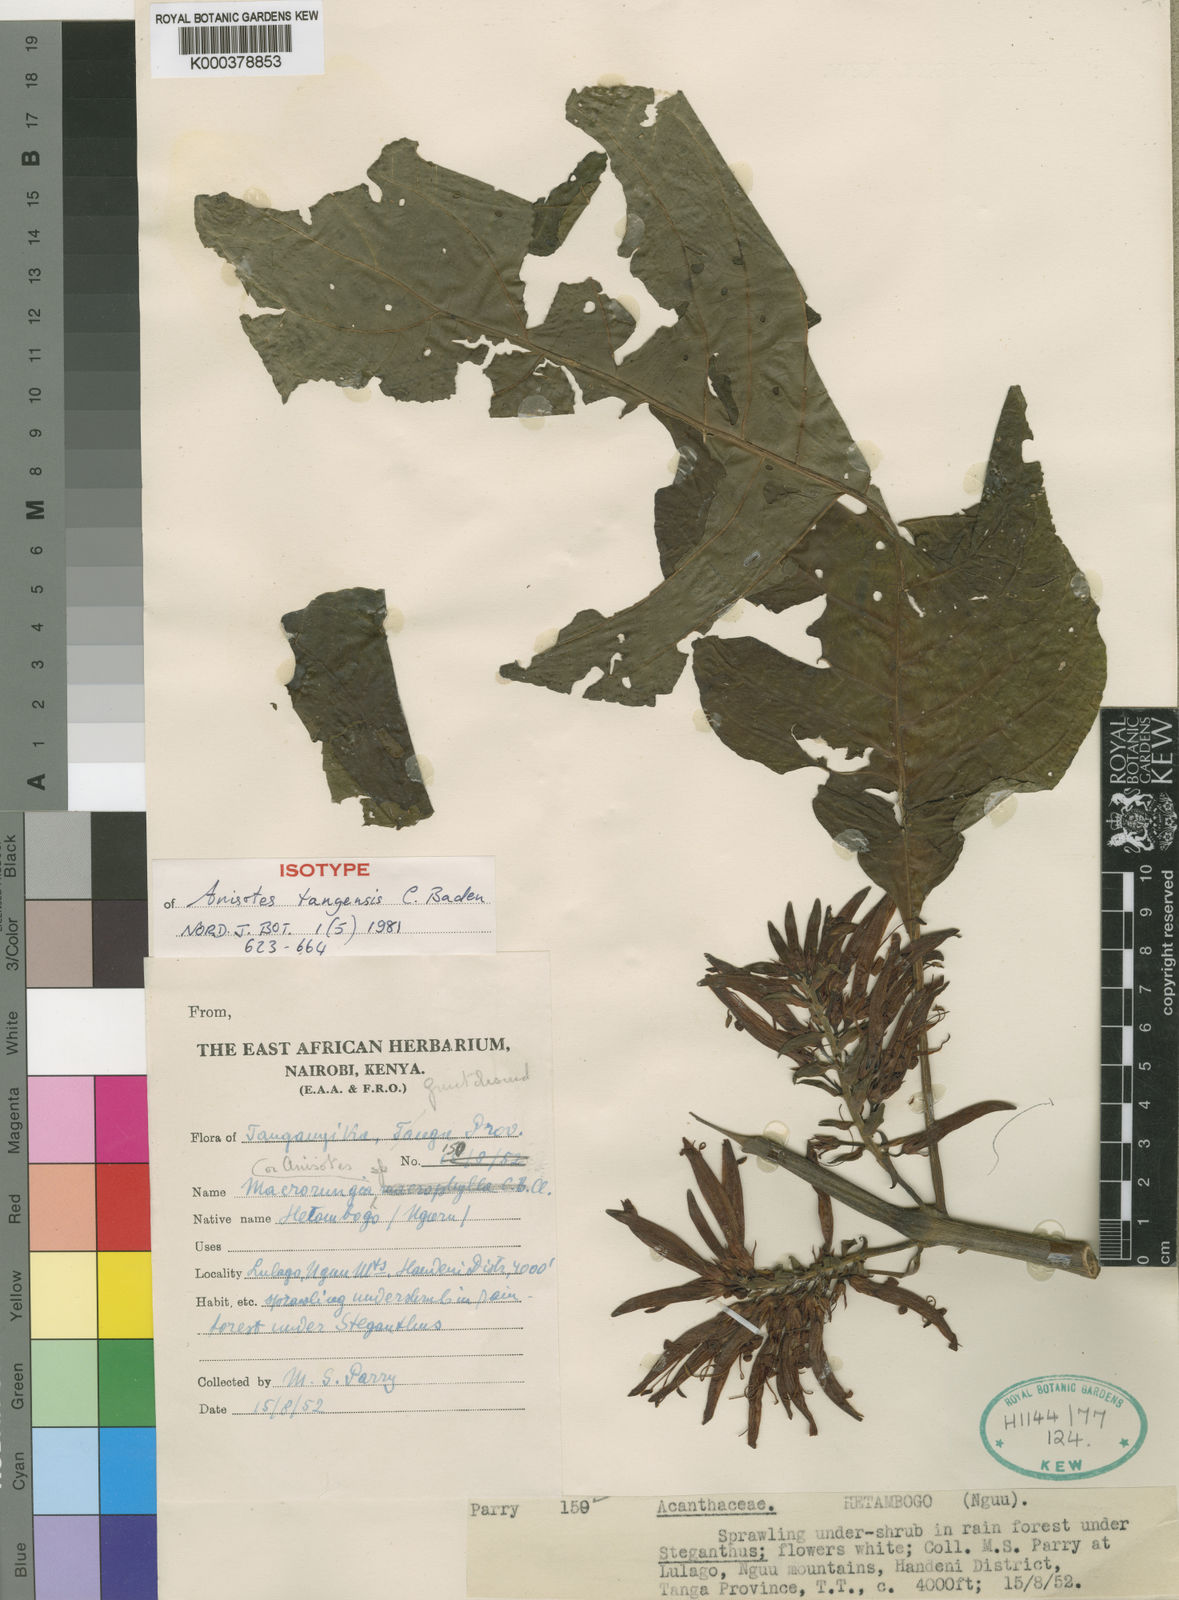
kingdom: Plantae
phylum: Tracheophyta
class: Magnoliopsida
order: Lamiales
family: Acanthaceae
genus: Anisotes
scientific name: Anisotes tangensis
